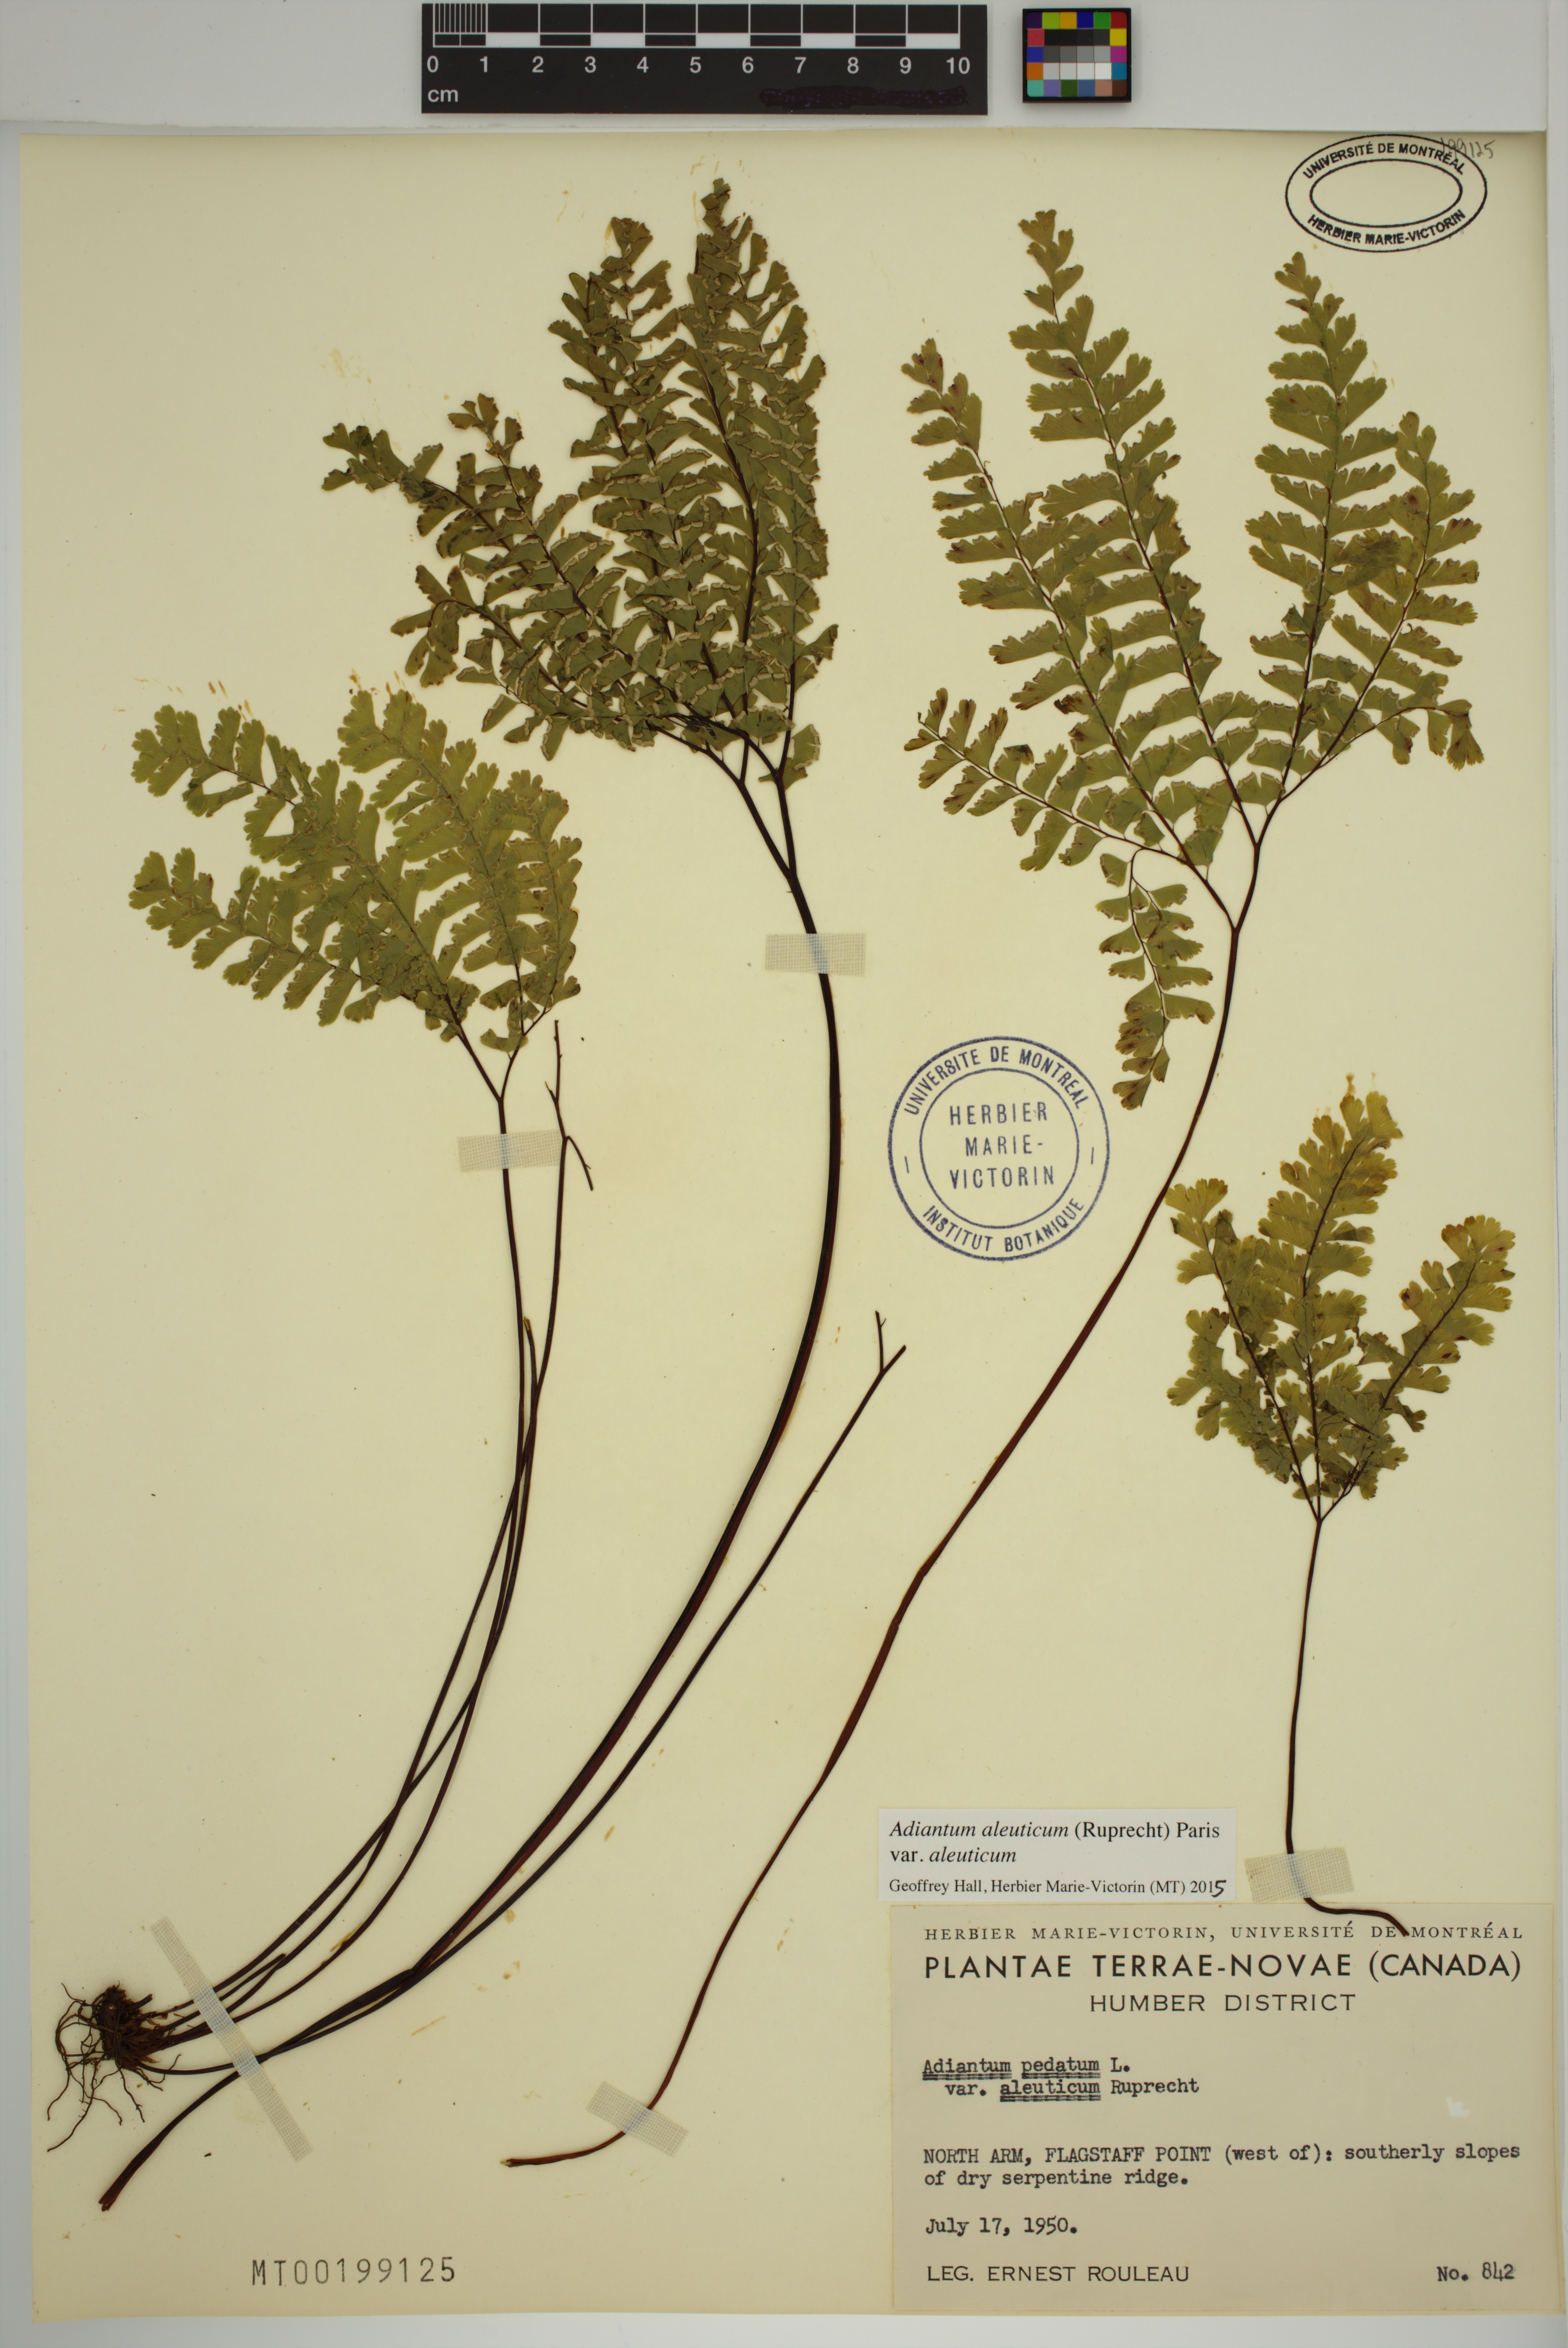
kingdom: Plantae
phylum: Tracheophyta
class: Polypodiopsida
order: Polypodiales
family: Pteridaceae
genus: Adiantum
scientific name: Adiantum aleuticum
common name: Aleutian maidenhair fern
